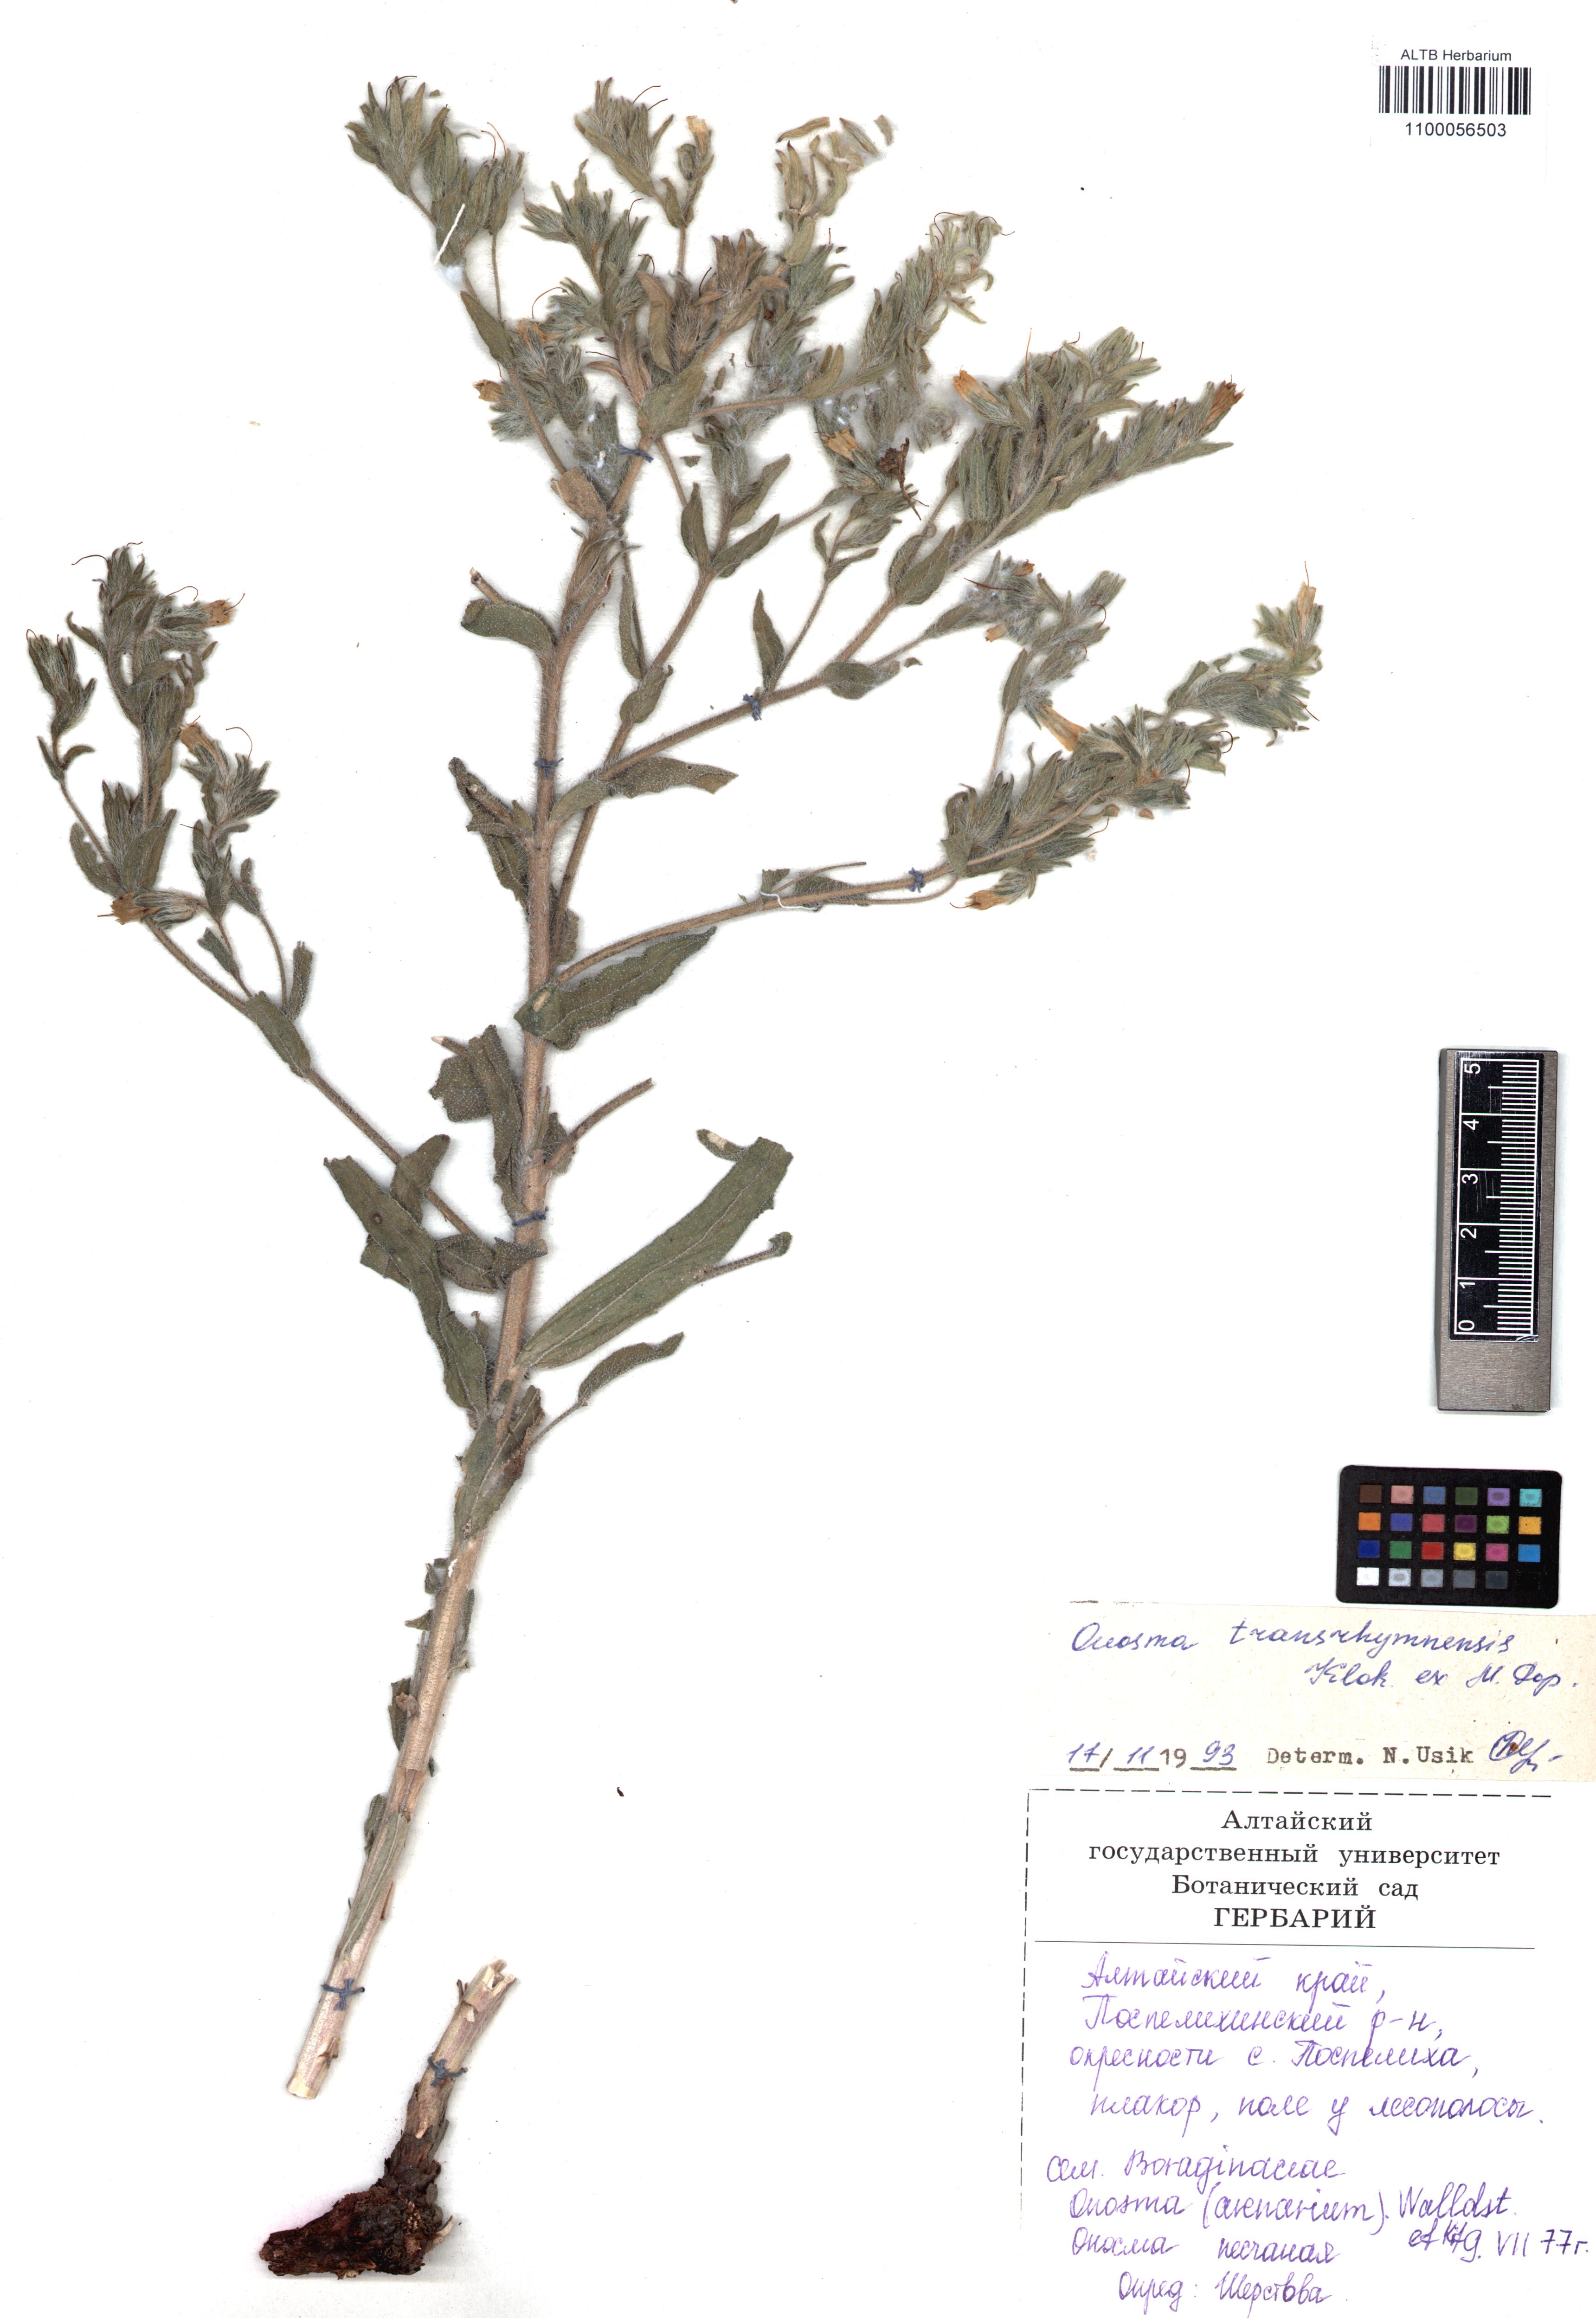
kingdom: Plantae
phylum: Tracheophyta
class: Magnoliopsida
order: Boraginales
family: Boraginaceae
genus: Onosma
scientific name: Onosma transrhymnensis
